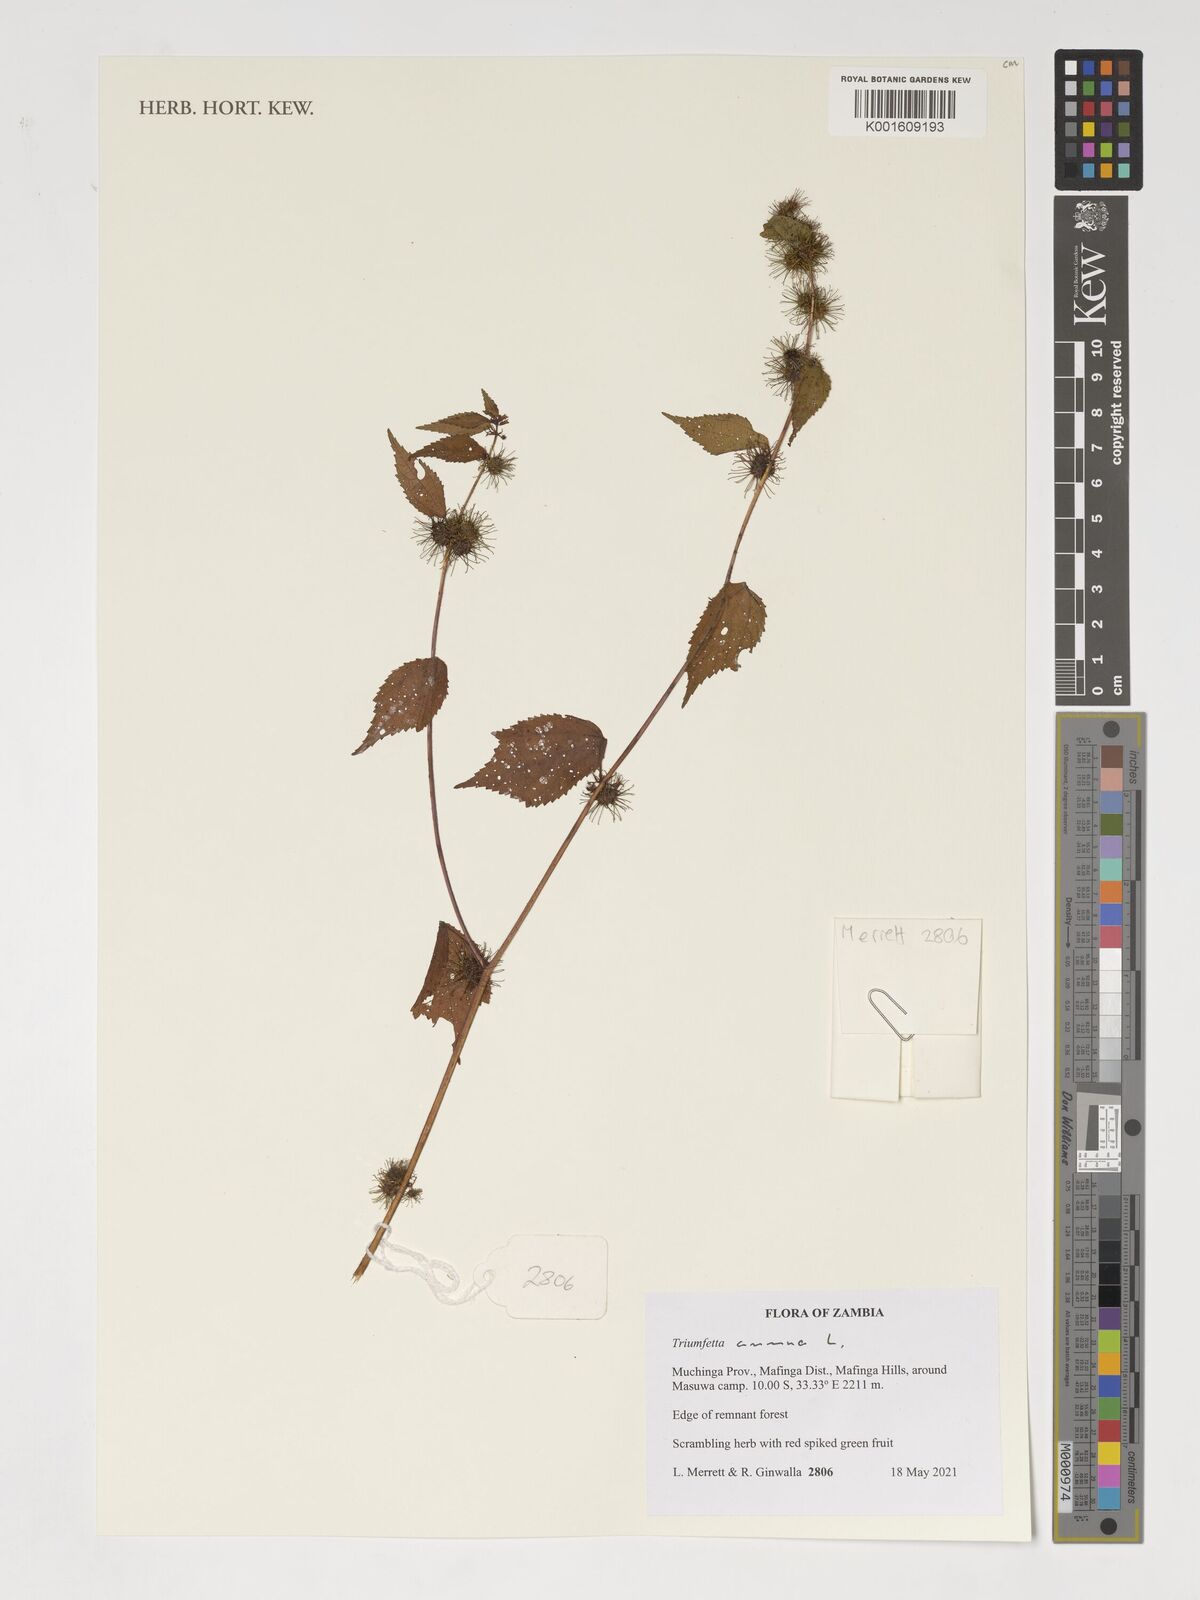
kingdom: Plantae
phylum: Tracheophyta
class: Magnoliopsida
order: Malvales
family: Malvaceae
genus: Triumfetta
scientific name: Triumfetta annua
